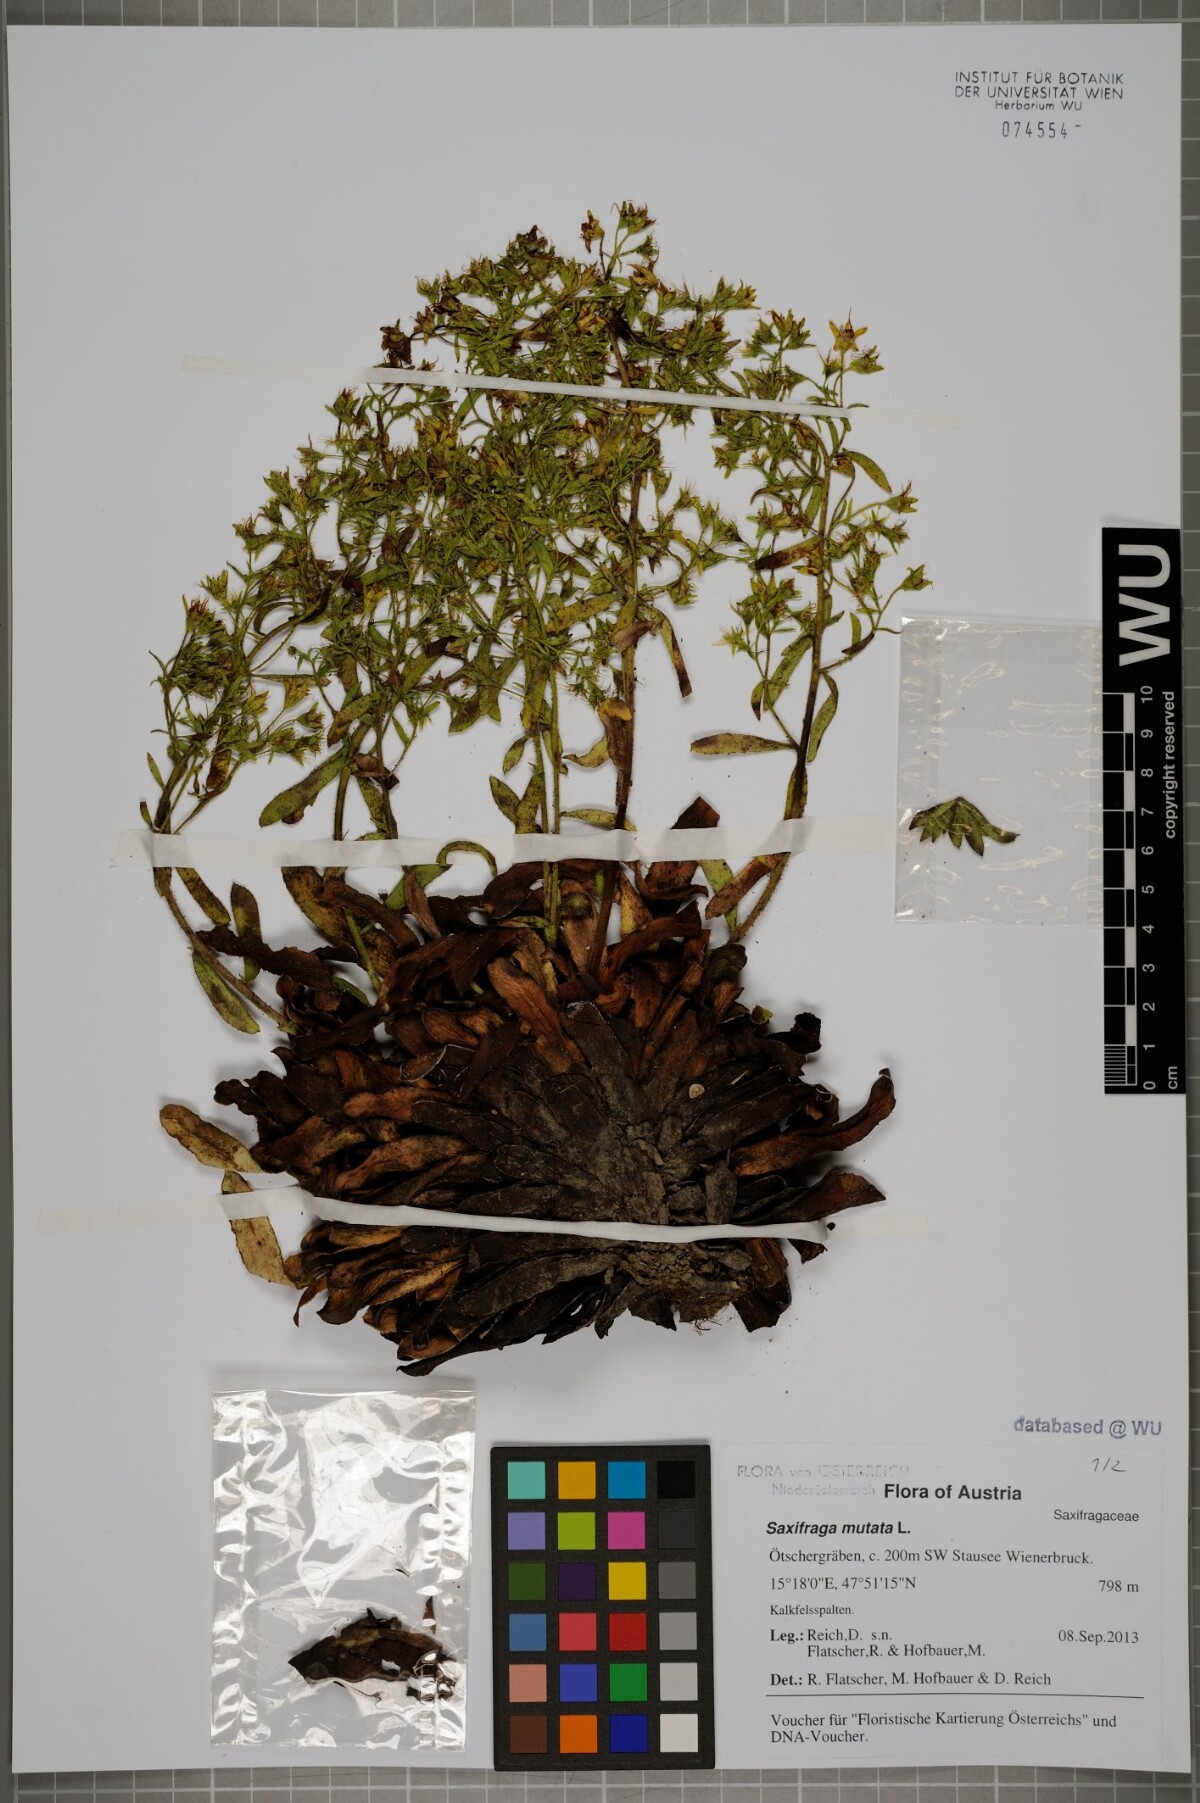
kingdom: Plantae
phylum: Tracheophyta
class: Magnoliopsida
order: Saxifragales
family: Saxifragaceae
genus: Saxifraga
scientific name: Saxifraga mutata
